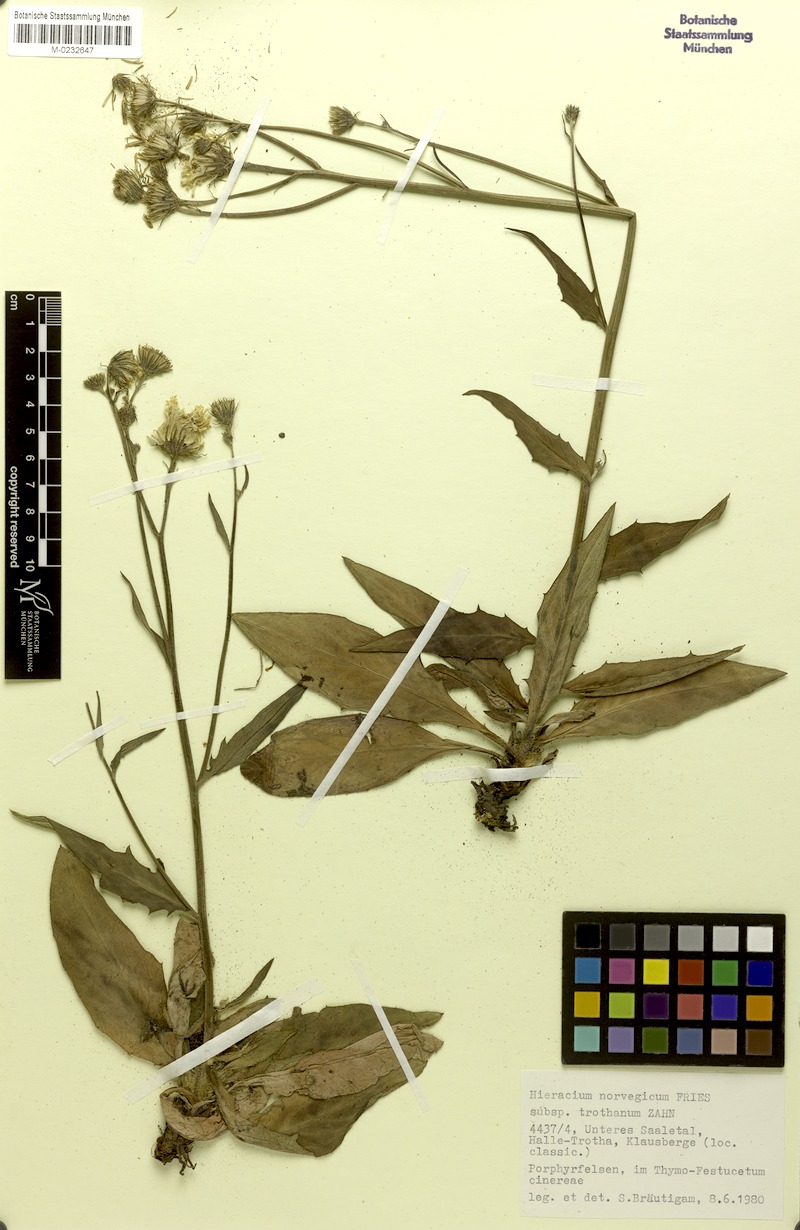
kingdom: Plantae
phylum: Tracheophyta
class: Magnoliopsida
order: Asterales
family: Asteraceae
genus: Hieracium
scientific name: Hieracium norvegicum
